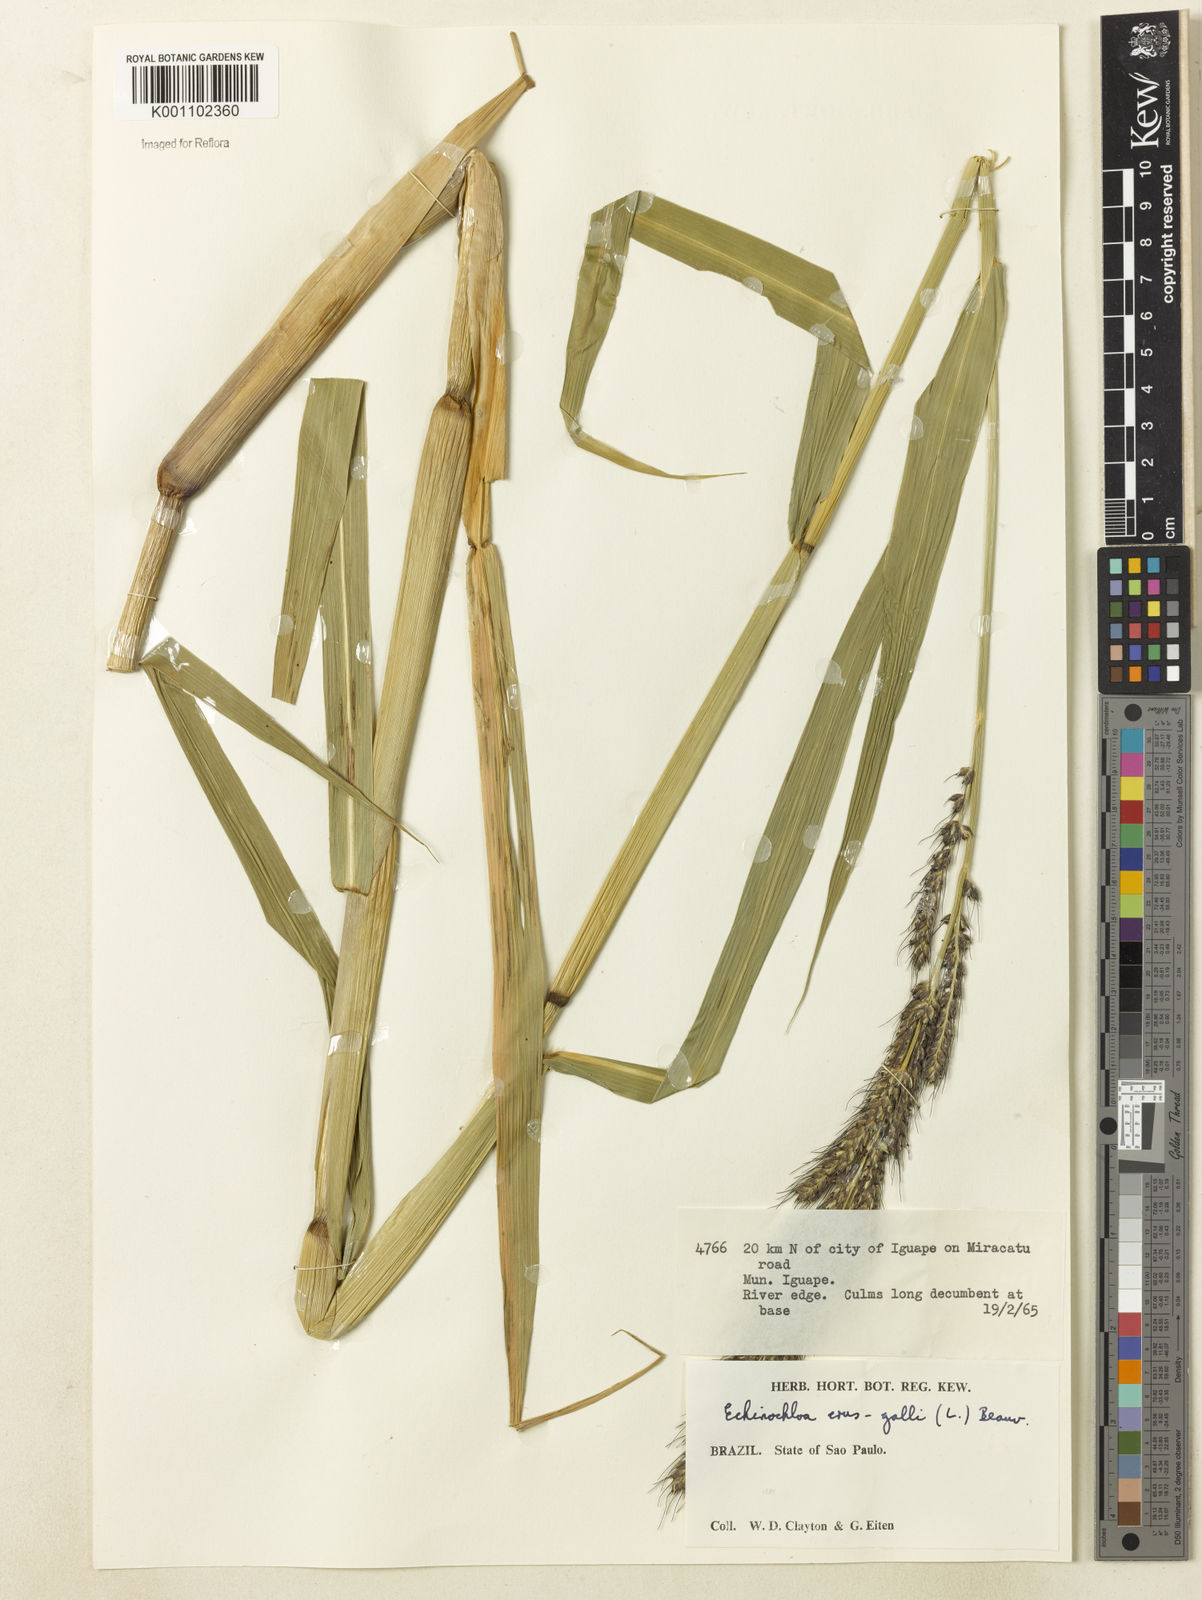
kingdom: Plantae
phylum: Tracheophyta
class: Liliopsida
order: Poales
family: Poaceae
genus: Echinochloa
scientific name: Echinochloa polystachya
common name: Creeping river grass
